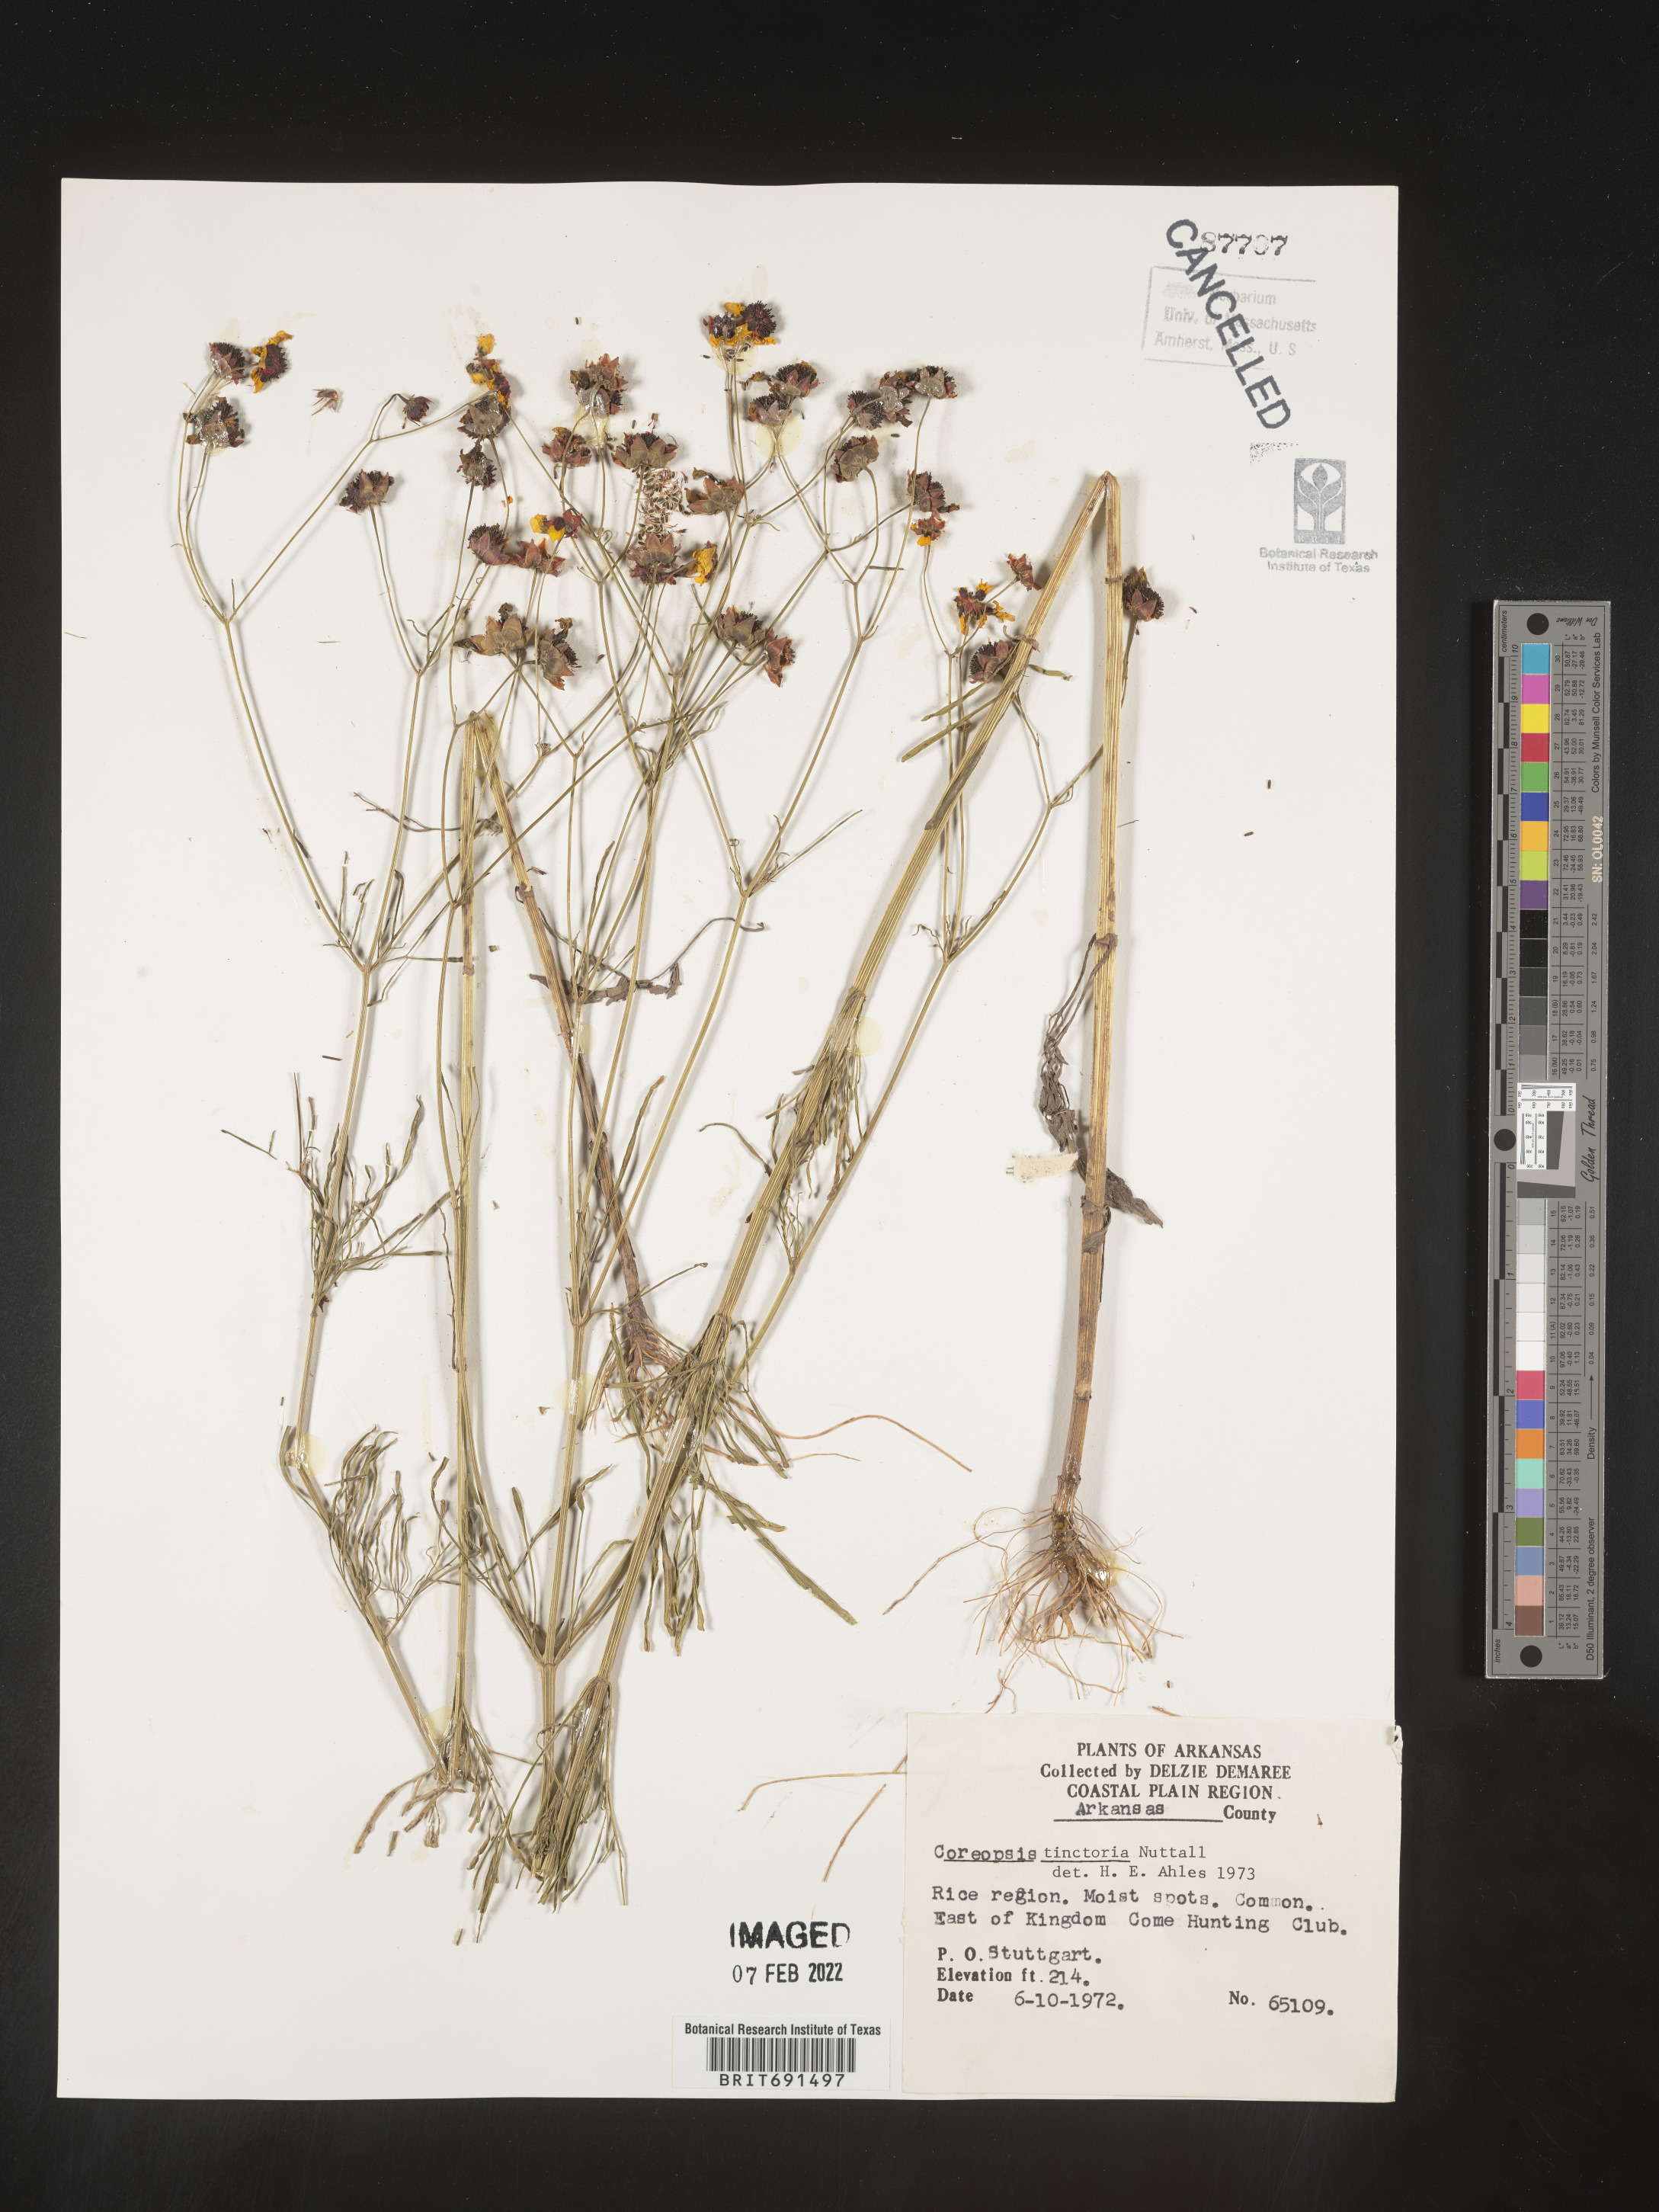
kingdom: Plantae
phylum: Tracheophyta
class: Magnoliopsida
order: Asterales
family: Asteraceae
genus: Coreopsis
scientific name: Coreopsis tinctoria
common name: Garden tickseed
